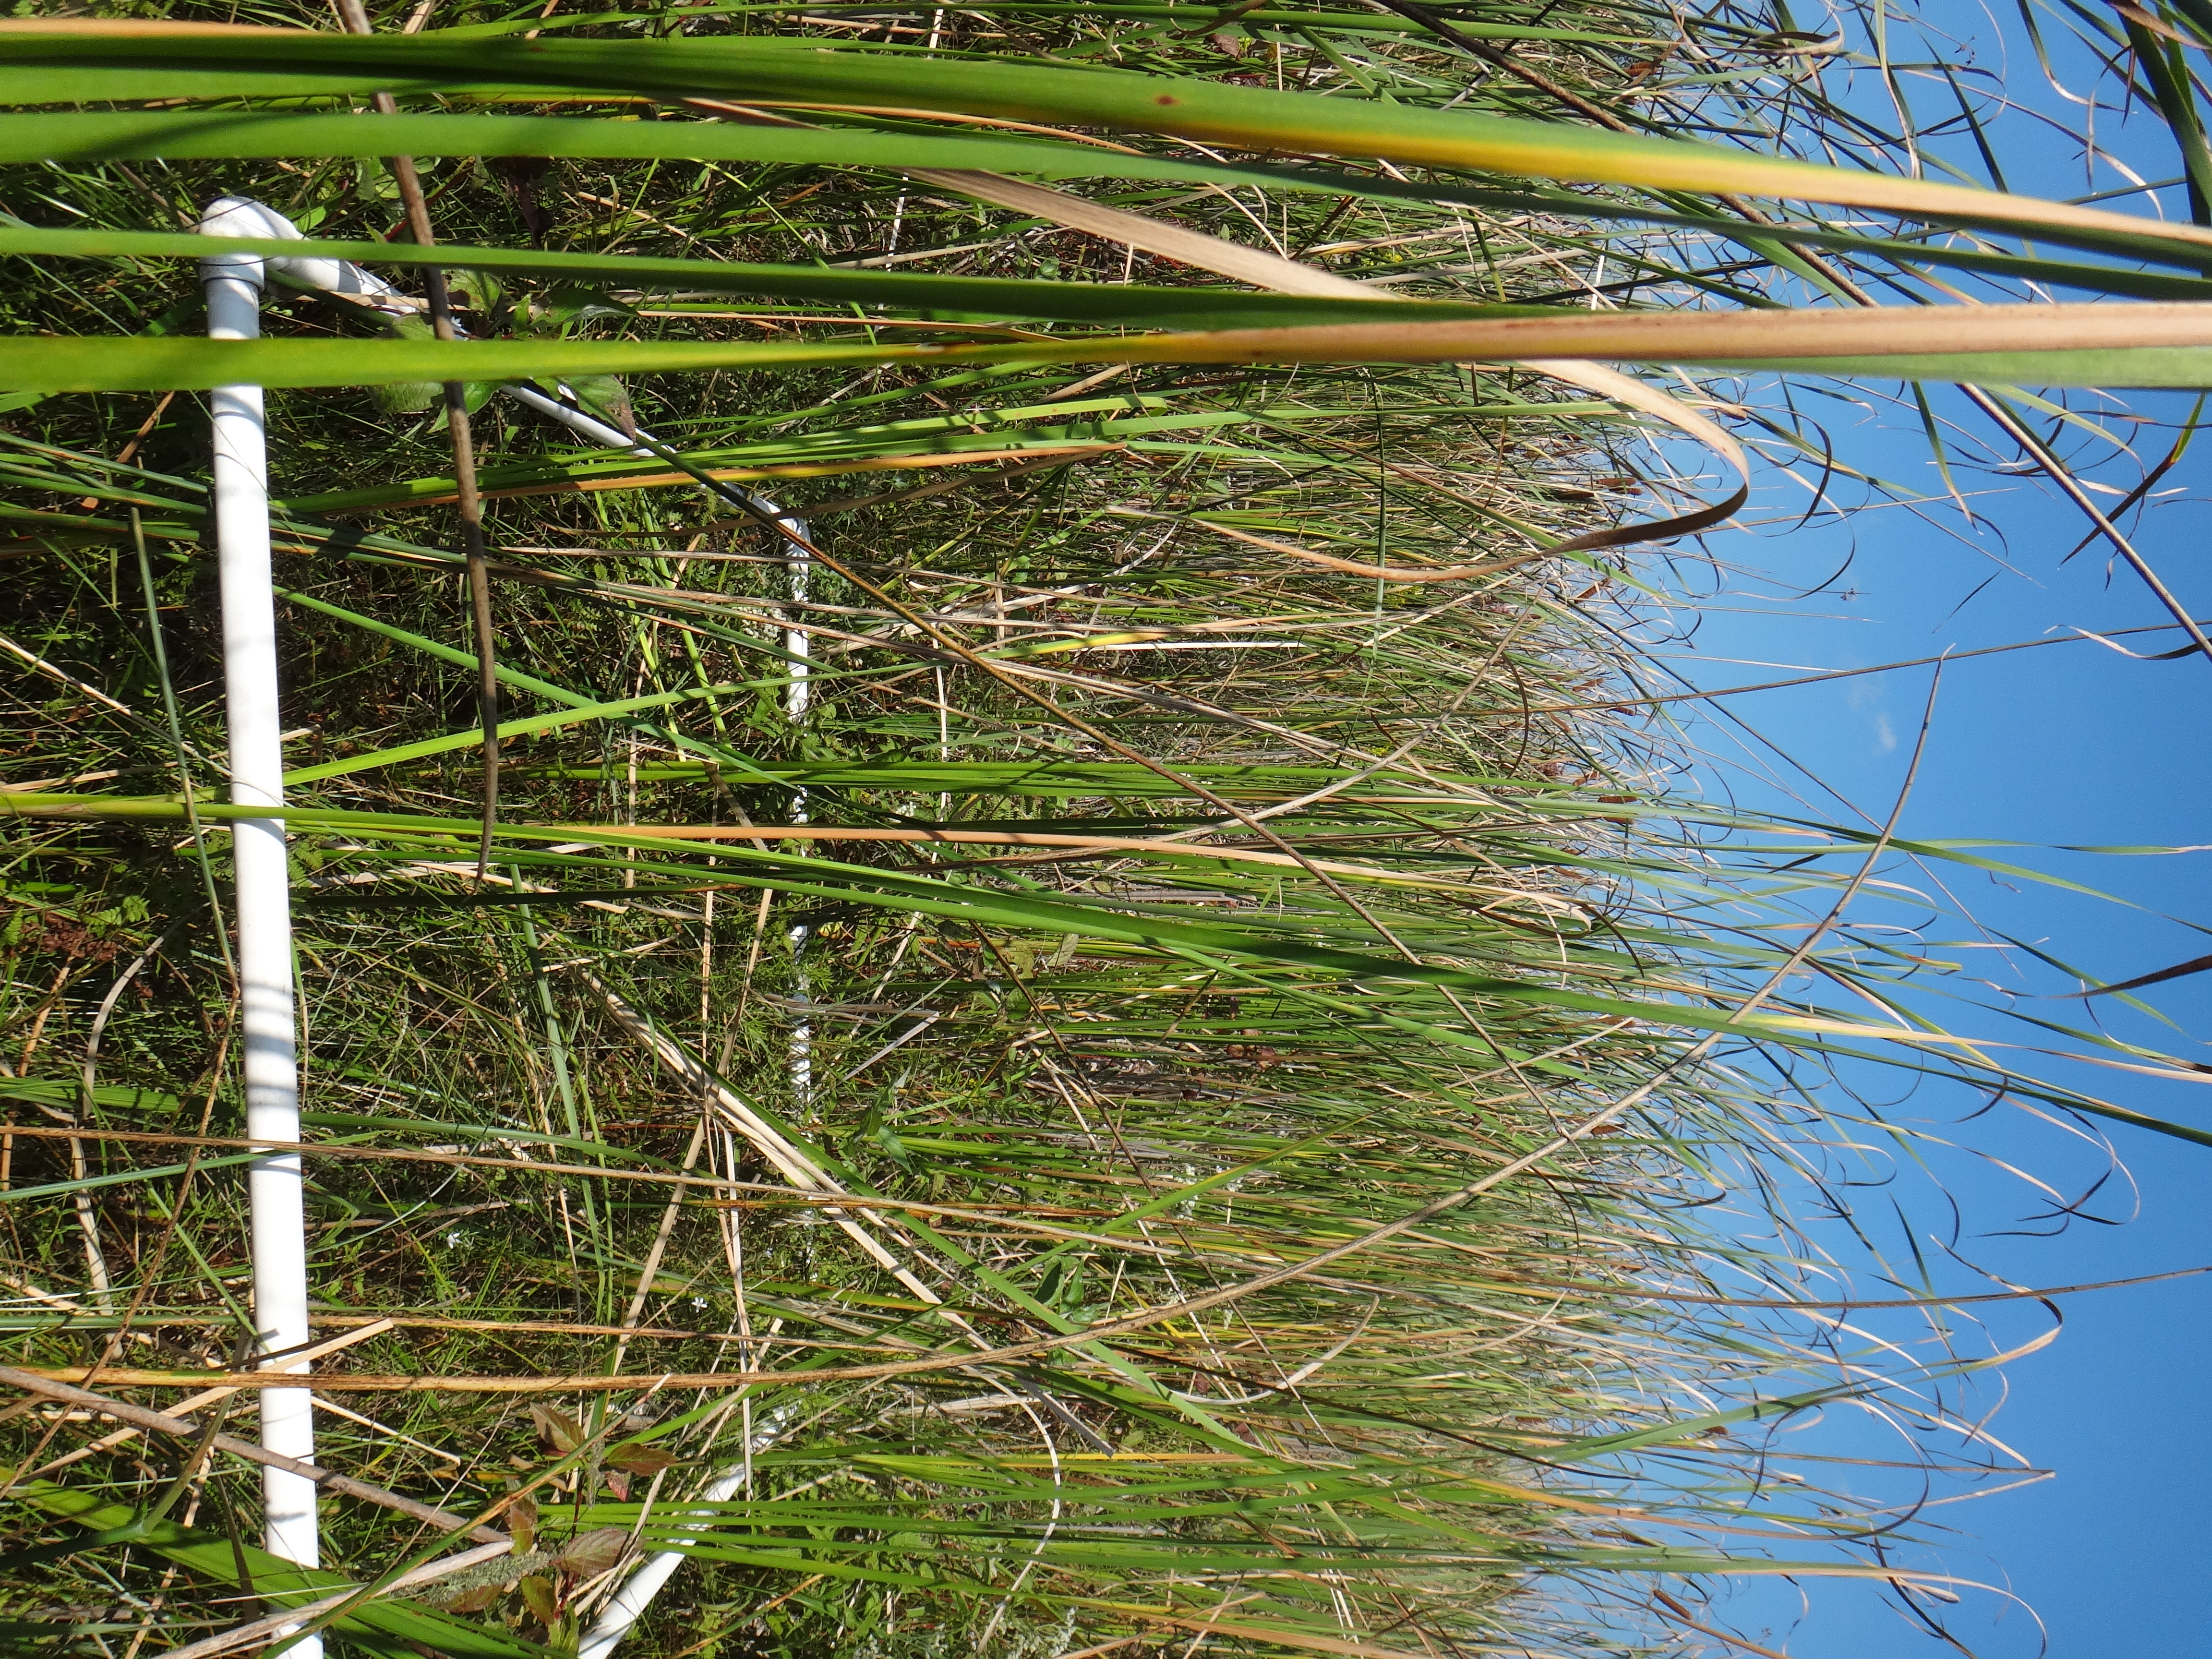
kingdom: Plantae
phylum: Tracheophyta
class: Liliopsida
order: Poales
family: Cyperaceae
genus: Scirpus
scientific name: Scirpus
